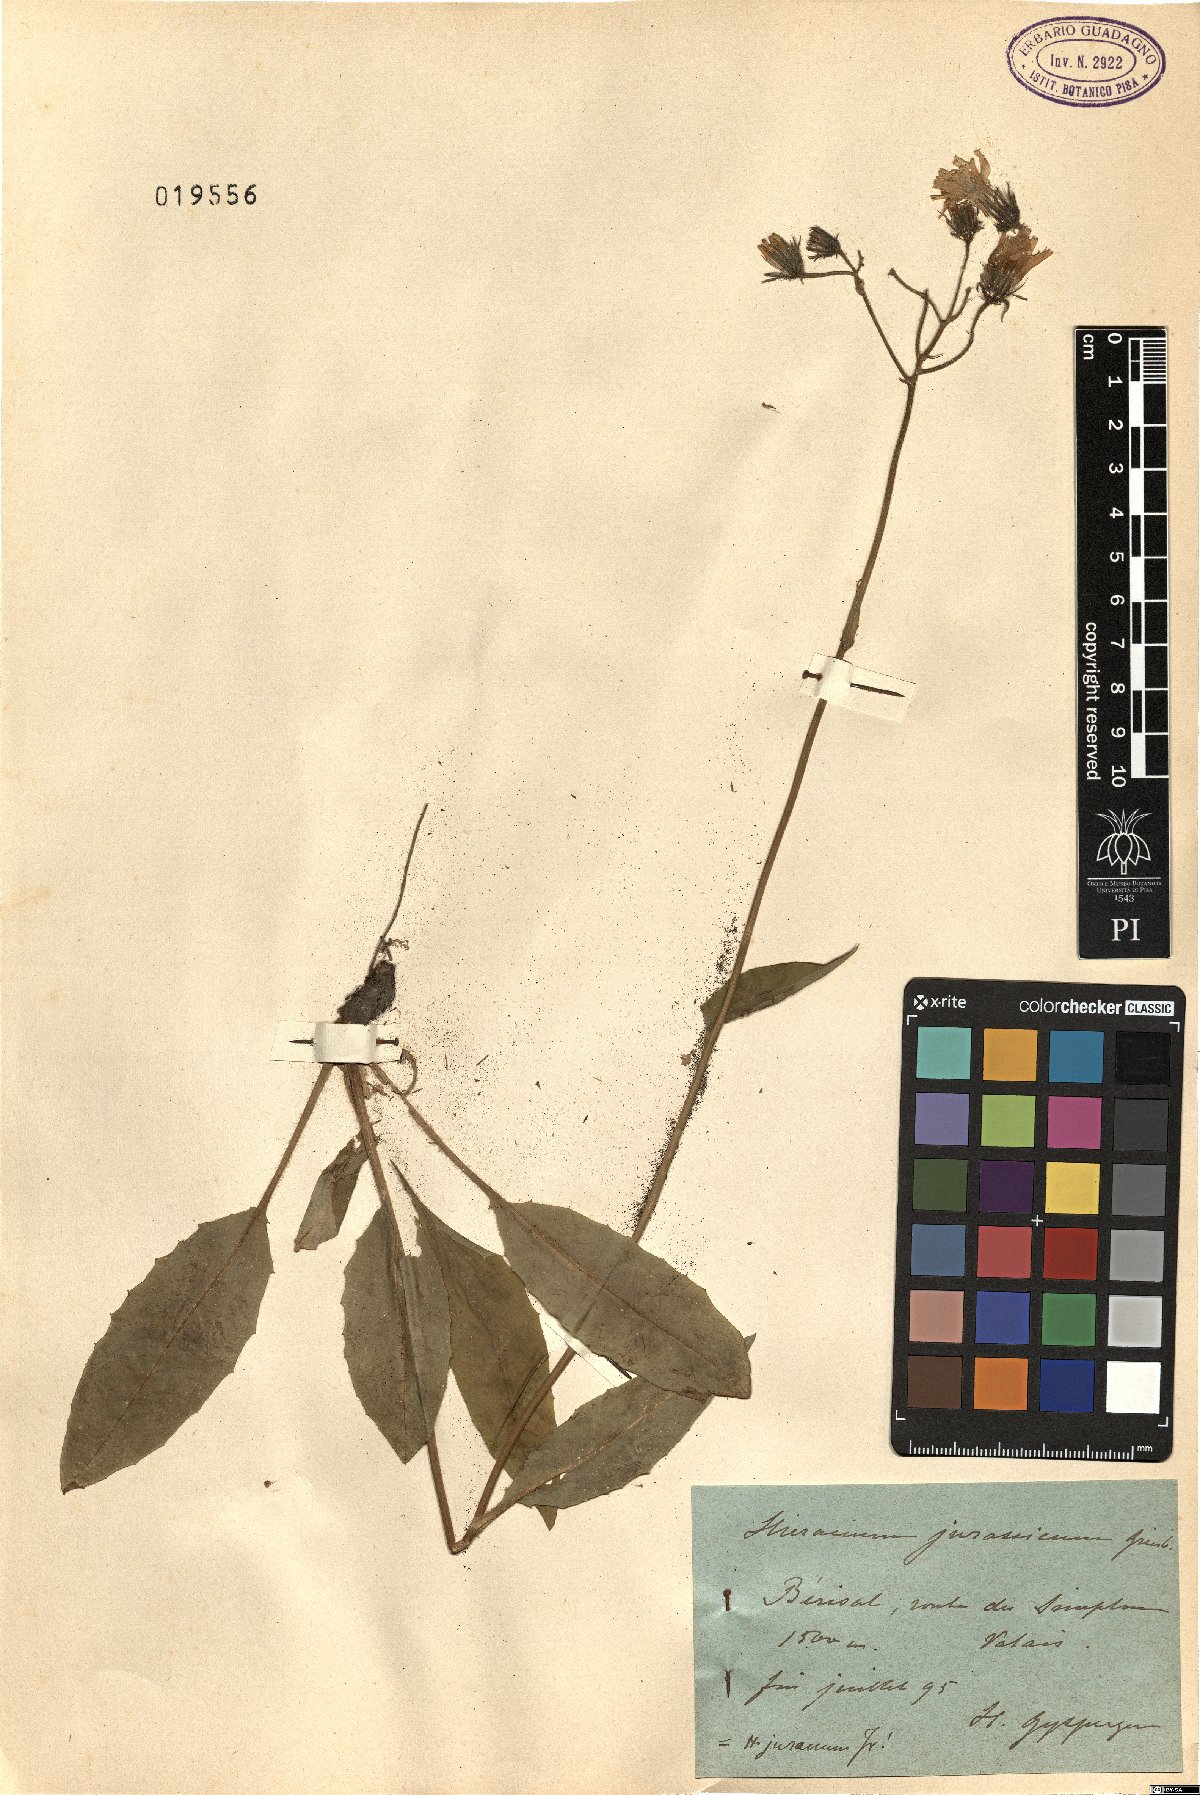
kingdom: Plantae
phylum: Tracheophyta
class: Magnoliopsida
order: Asterales
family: Asteraceae
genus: Hieracium
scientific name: Hieracium jurassicum
